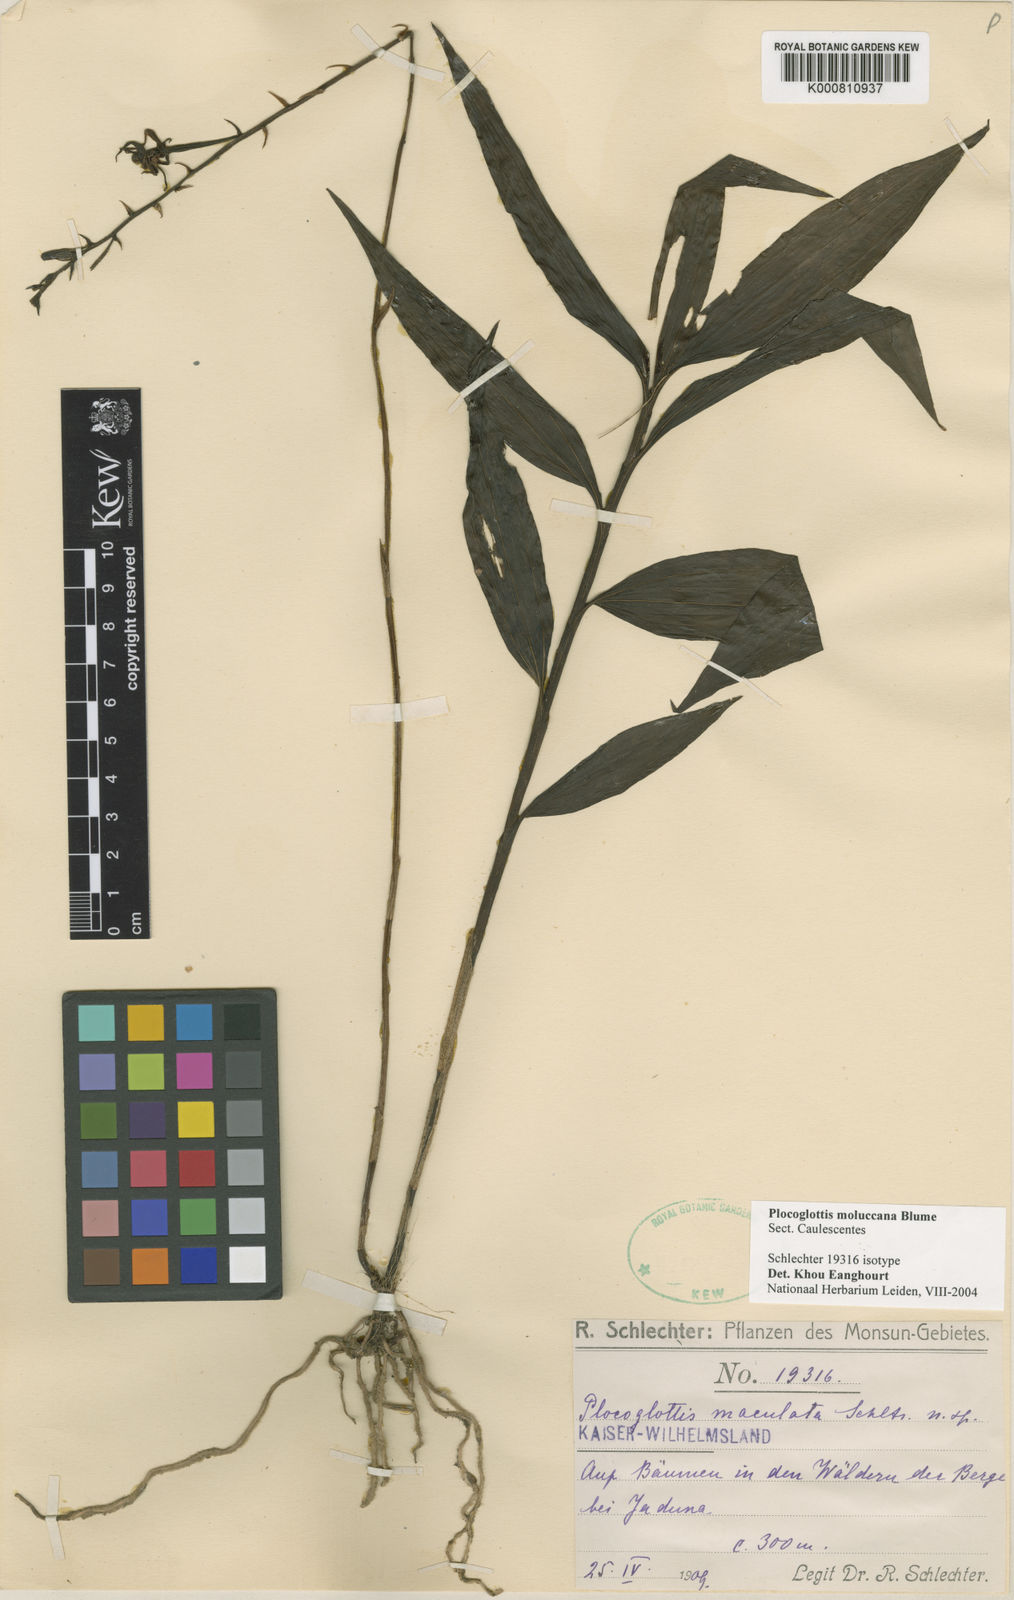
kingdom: Plantae
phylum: Tracheophyta
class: Liliopsida
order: Asparagales
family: Orchidaceae
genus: Plocoglottis
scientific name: Plocoglottis moluccana
